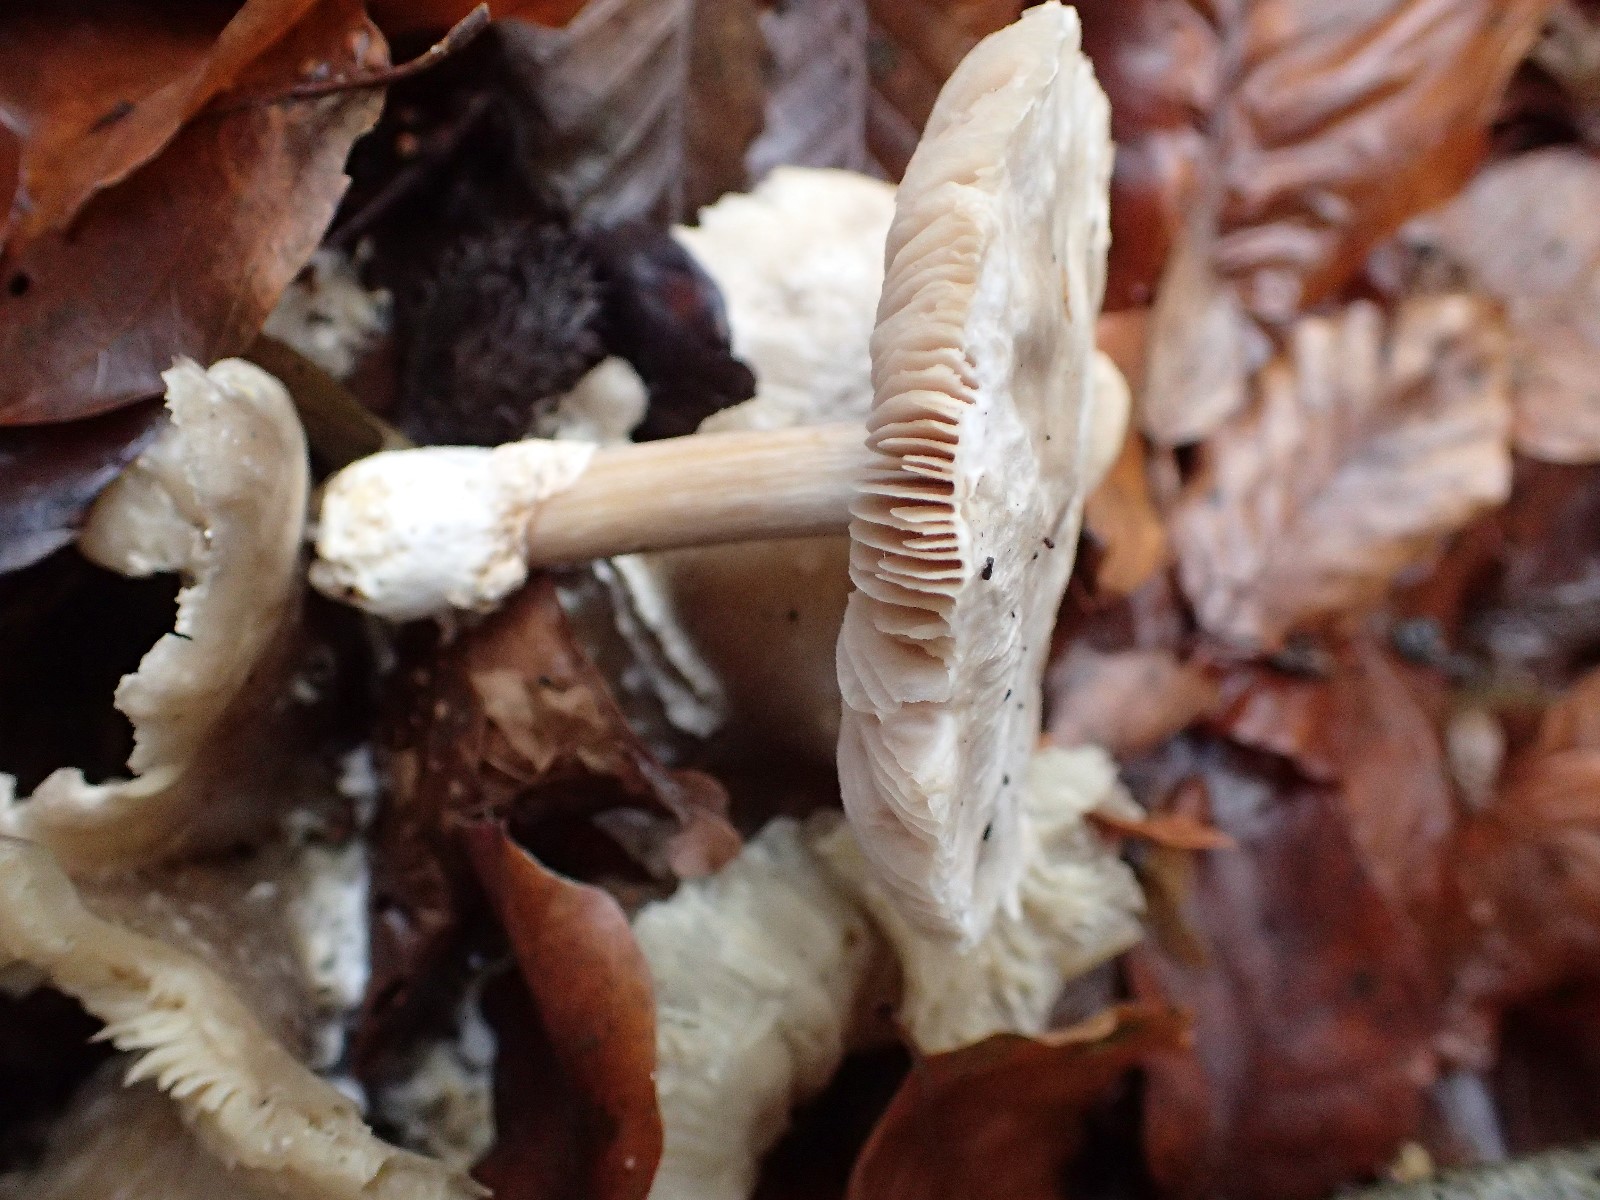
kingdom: Fungi
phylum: Basidiomycota
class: Agaricomycetes
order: Agaricales
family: Pluteaceae
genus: Volvariella
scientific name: Volvariella surrecta
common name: snyltende posesvamp
